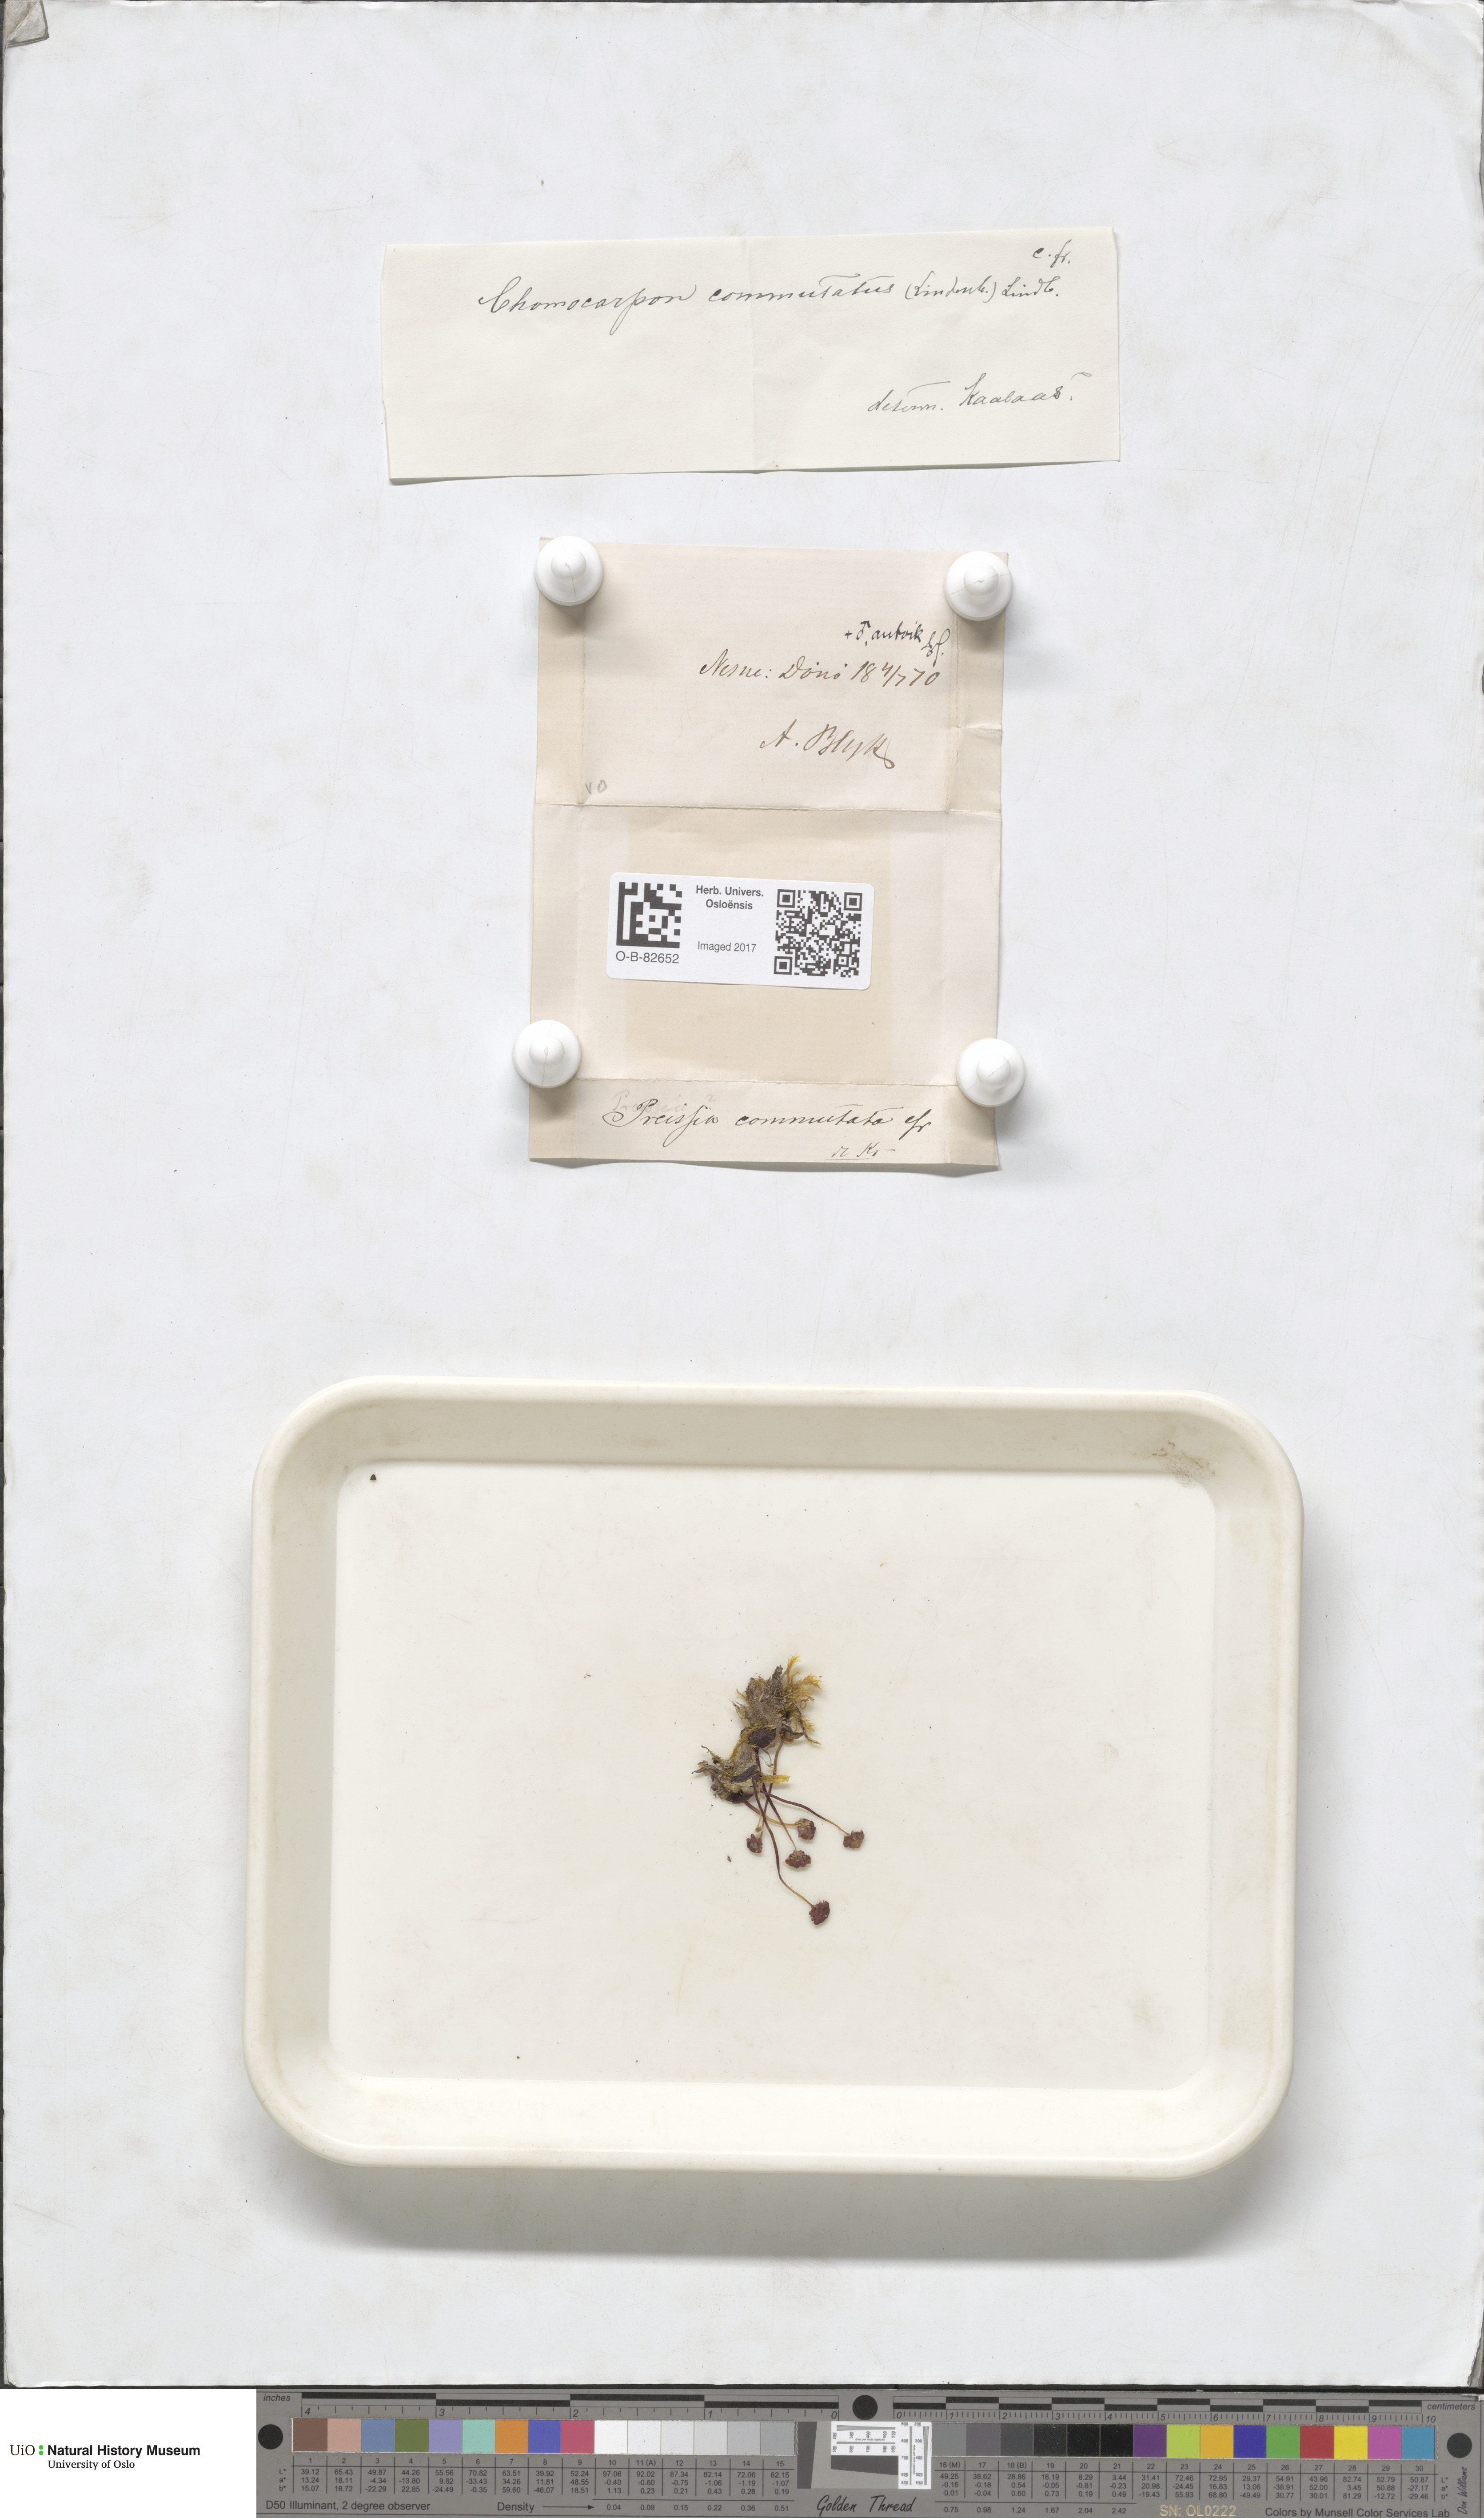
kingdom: Plantae
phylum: Marchantiophyta
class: Marchantiopsida
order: Marchantiales
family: Marchantiaceae
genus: Marchantia
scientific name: Marchantia quadrata
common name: Narrow mushroom-headed liverwort
